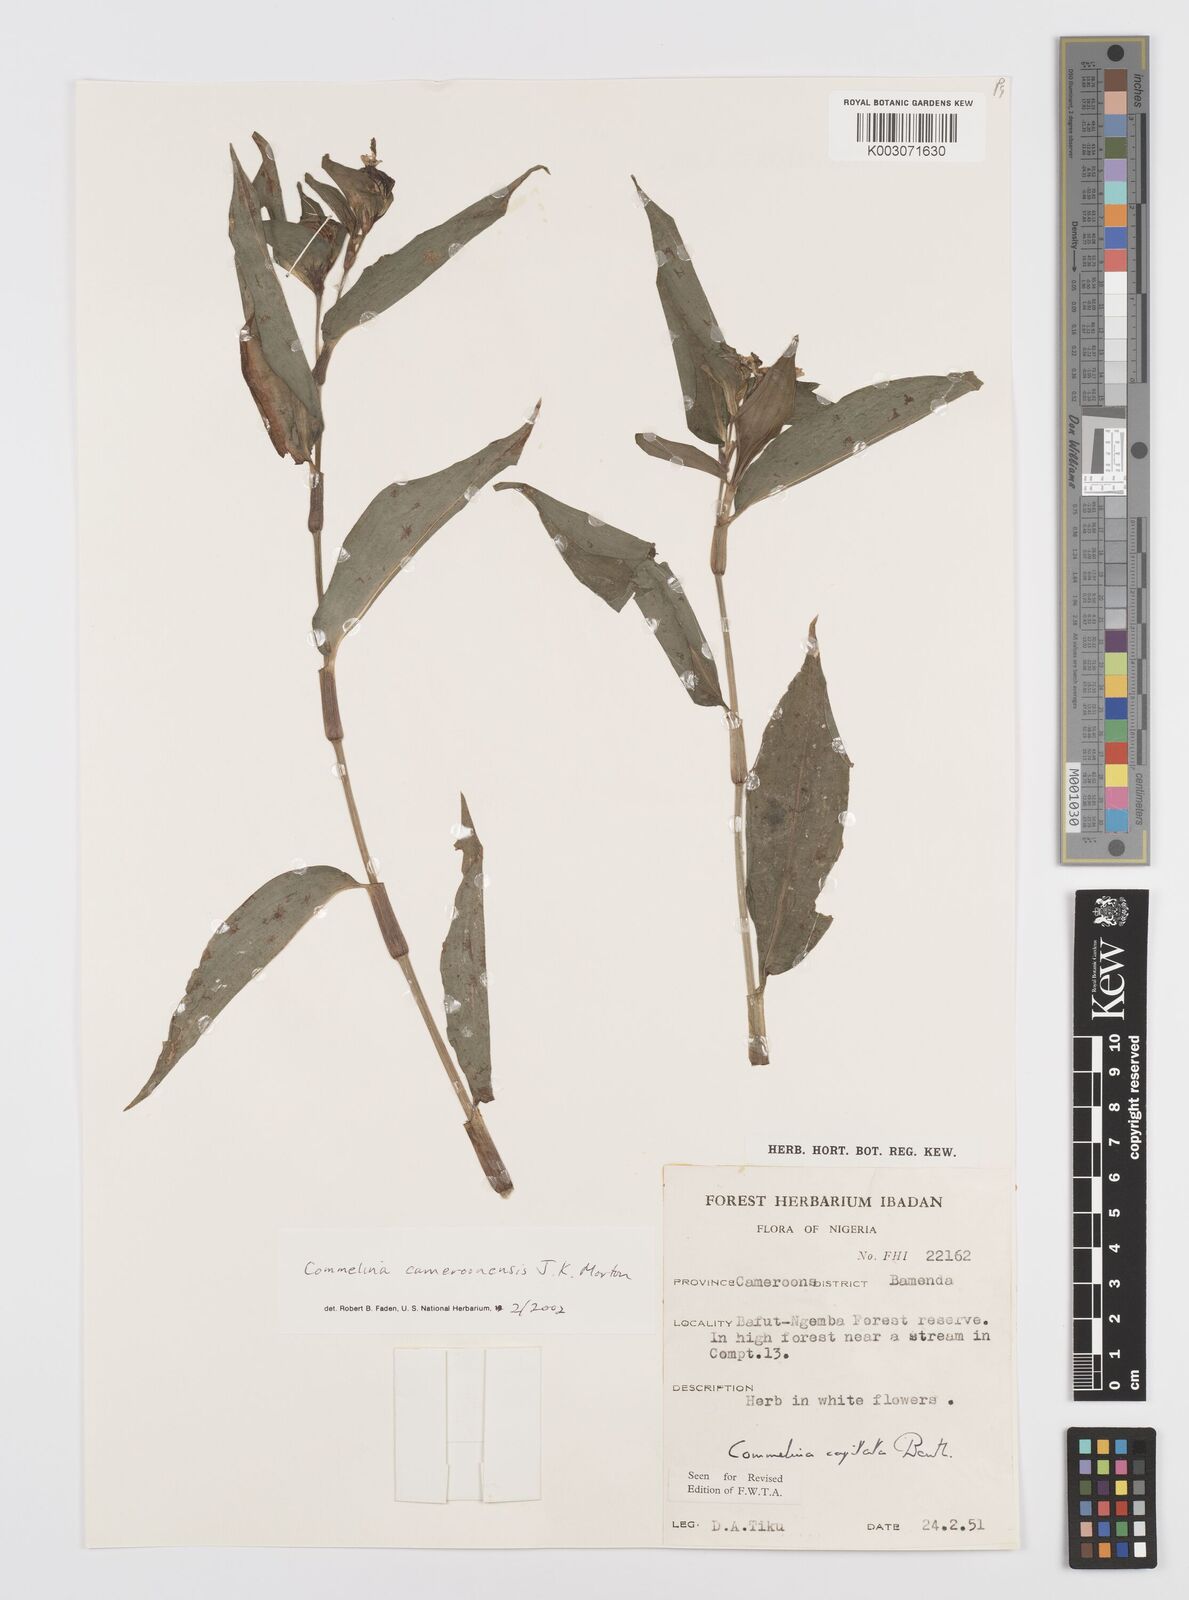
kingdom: Plantae
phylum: Tracheophyta
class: Liliopsida
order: Commelinales
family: Commelinaceae
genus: Commelina
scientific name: Commelina cameroonensis
